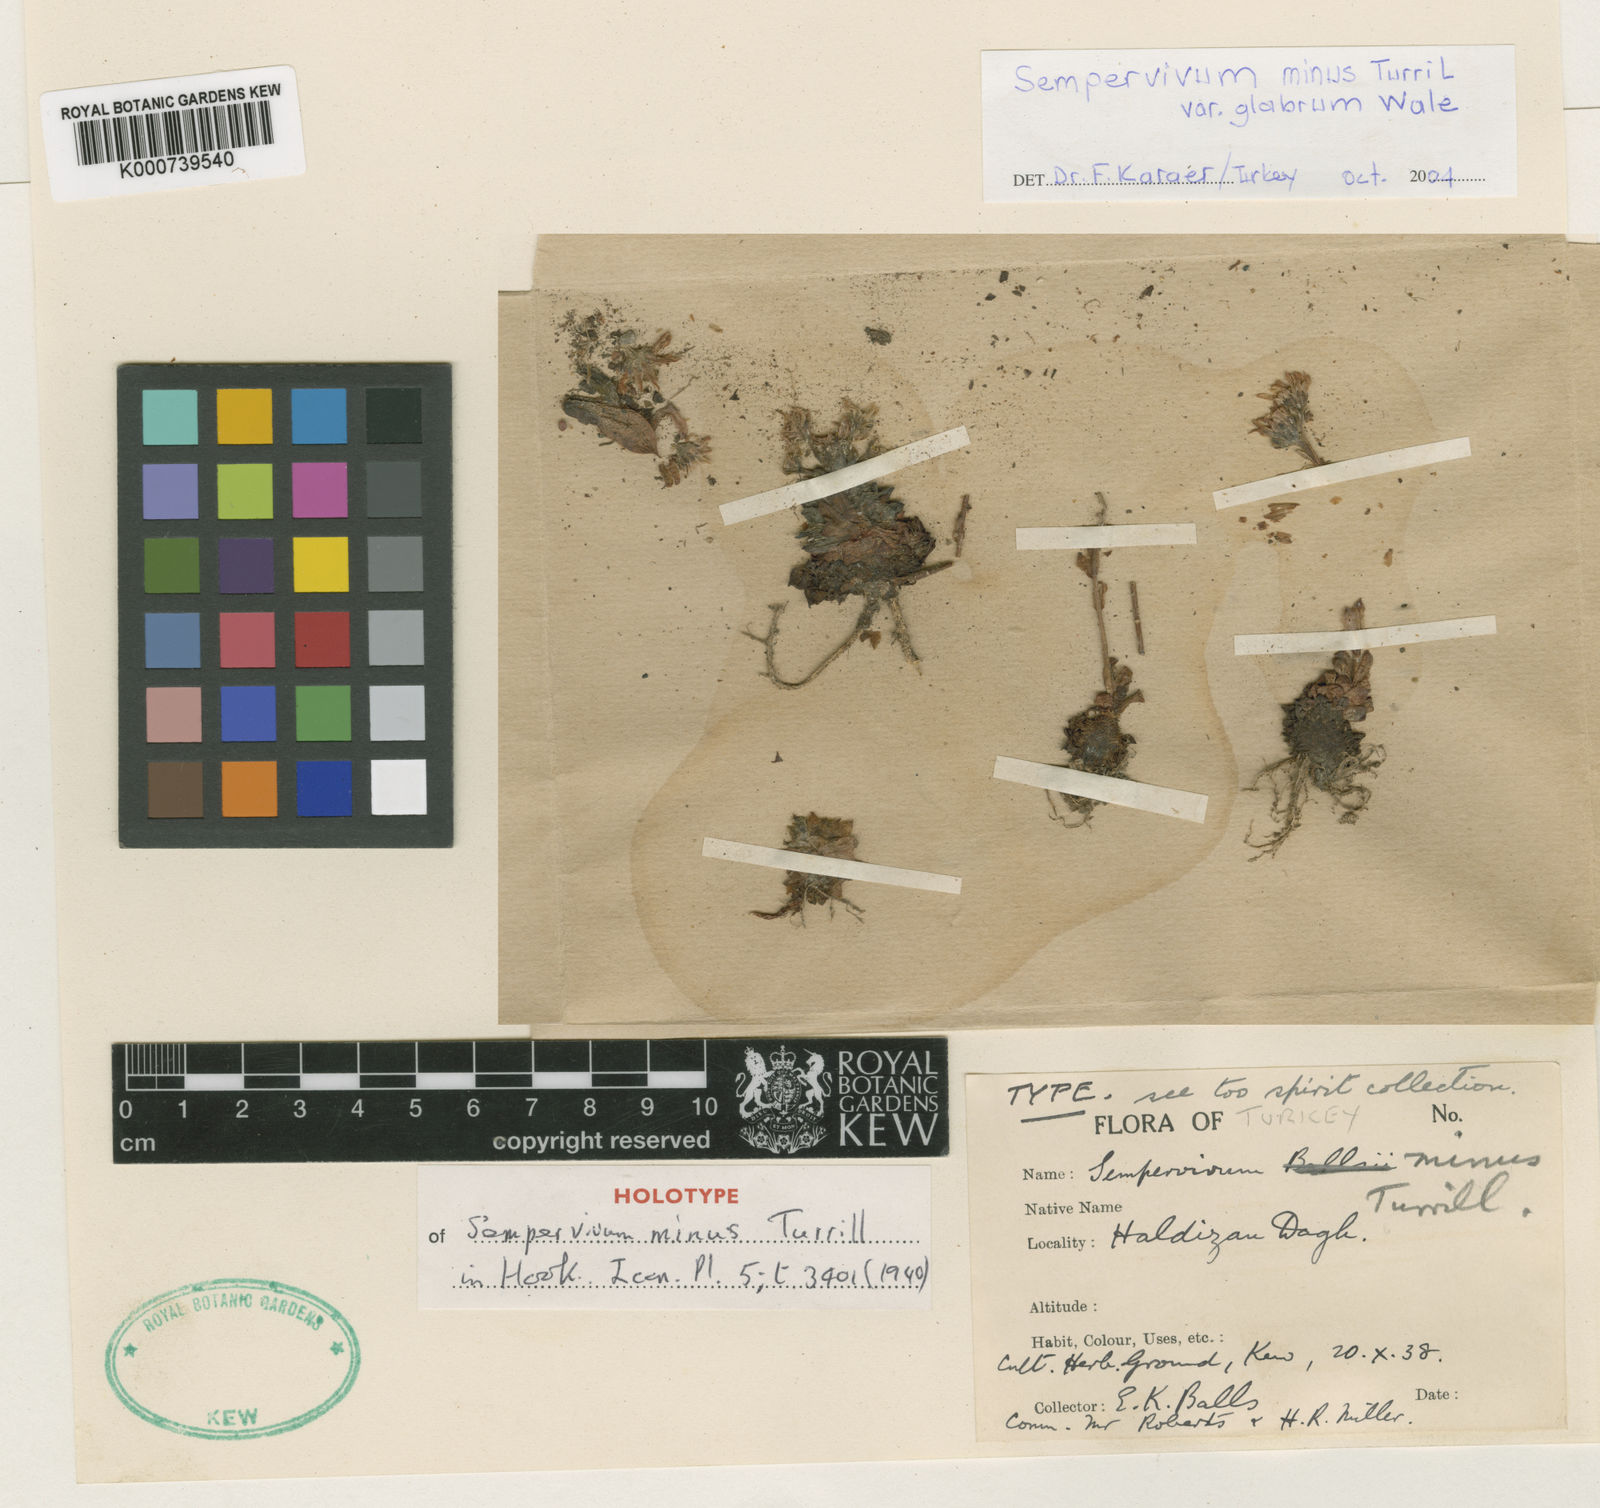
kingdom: Plantae
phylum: Tracheophyta
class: Magnoliopsida
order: Saxifragales
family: Crassulaceae
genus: Sempervivum
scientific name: Sempervivum ekimii
